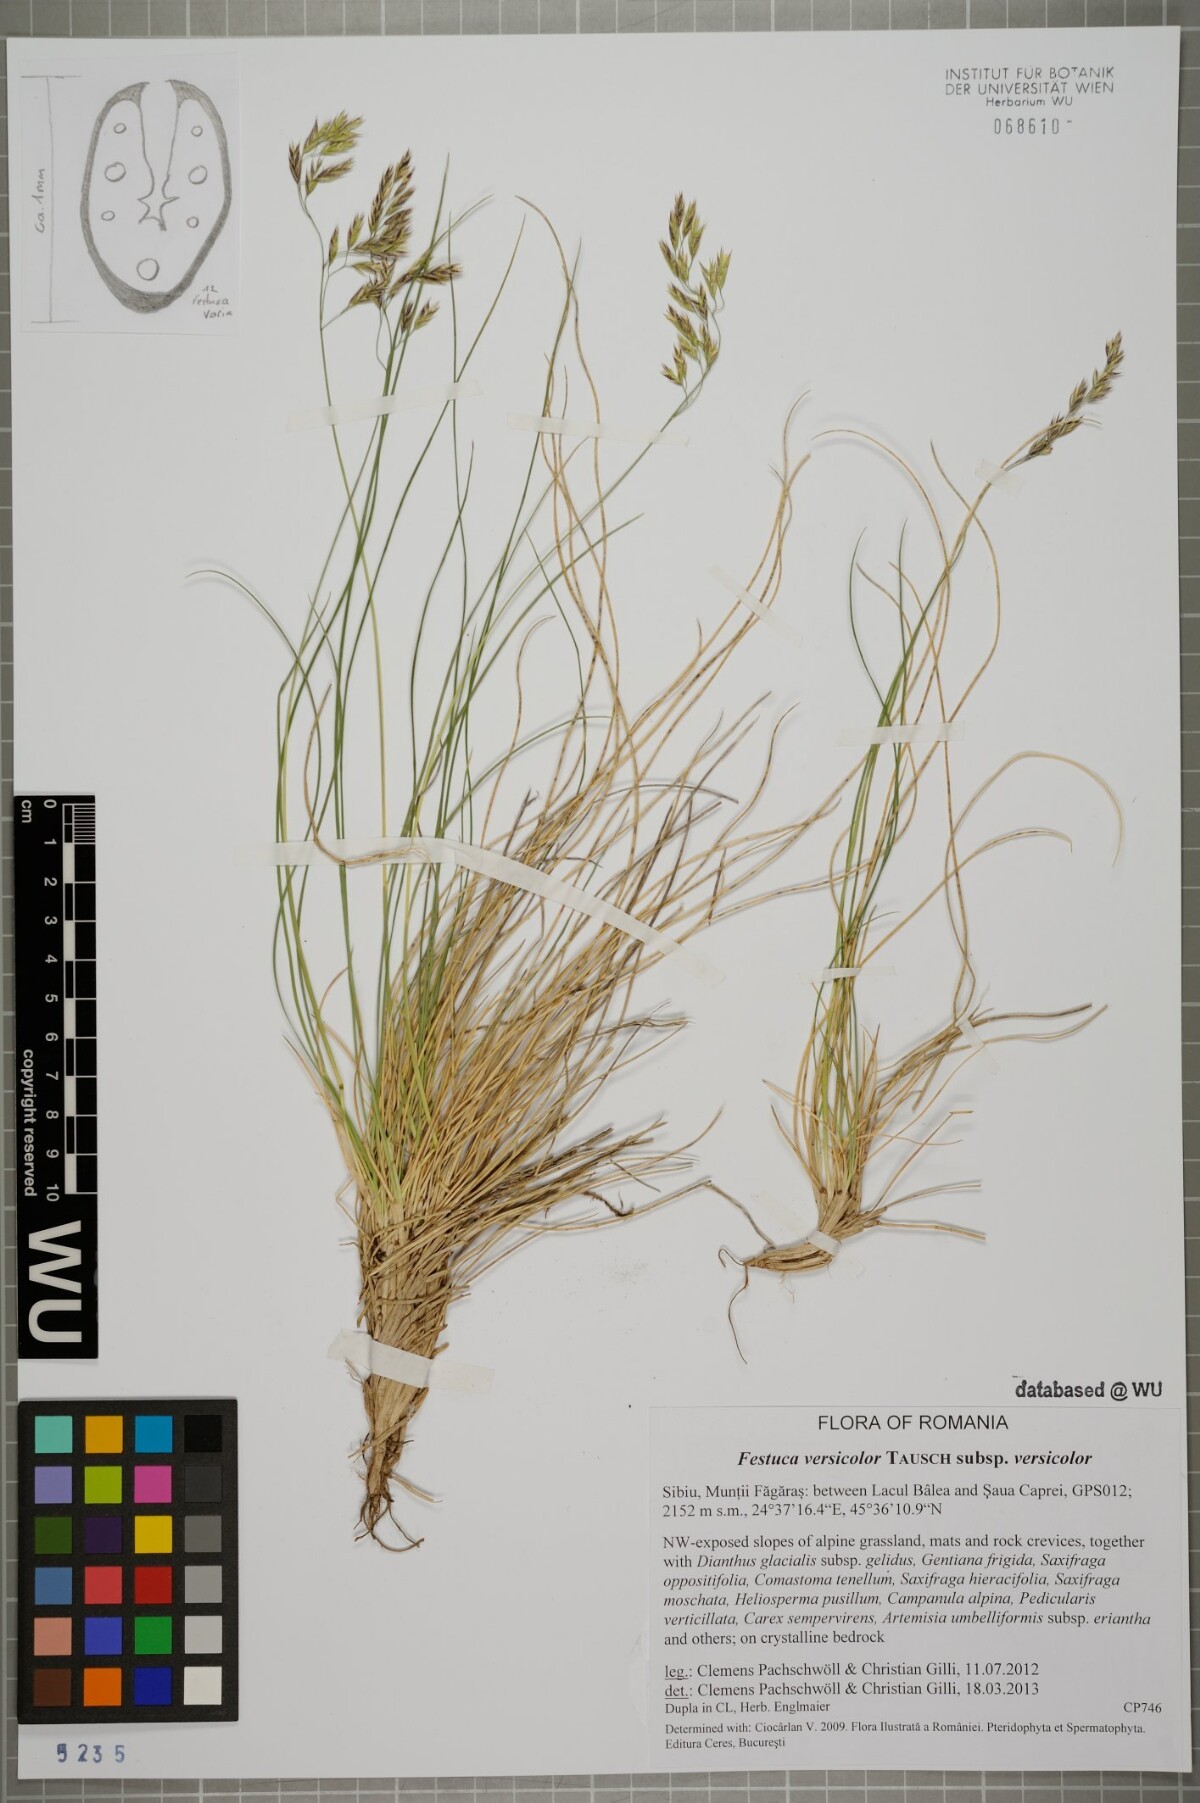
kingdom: Plantae
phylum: Tracheophyta
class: Liliopsida
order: Poales
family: Poaceae
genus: Festuca
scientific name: Festuca versicolor
